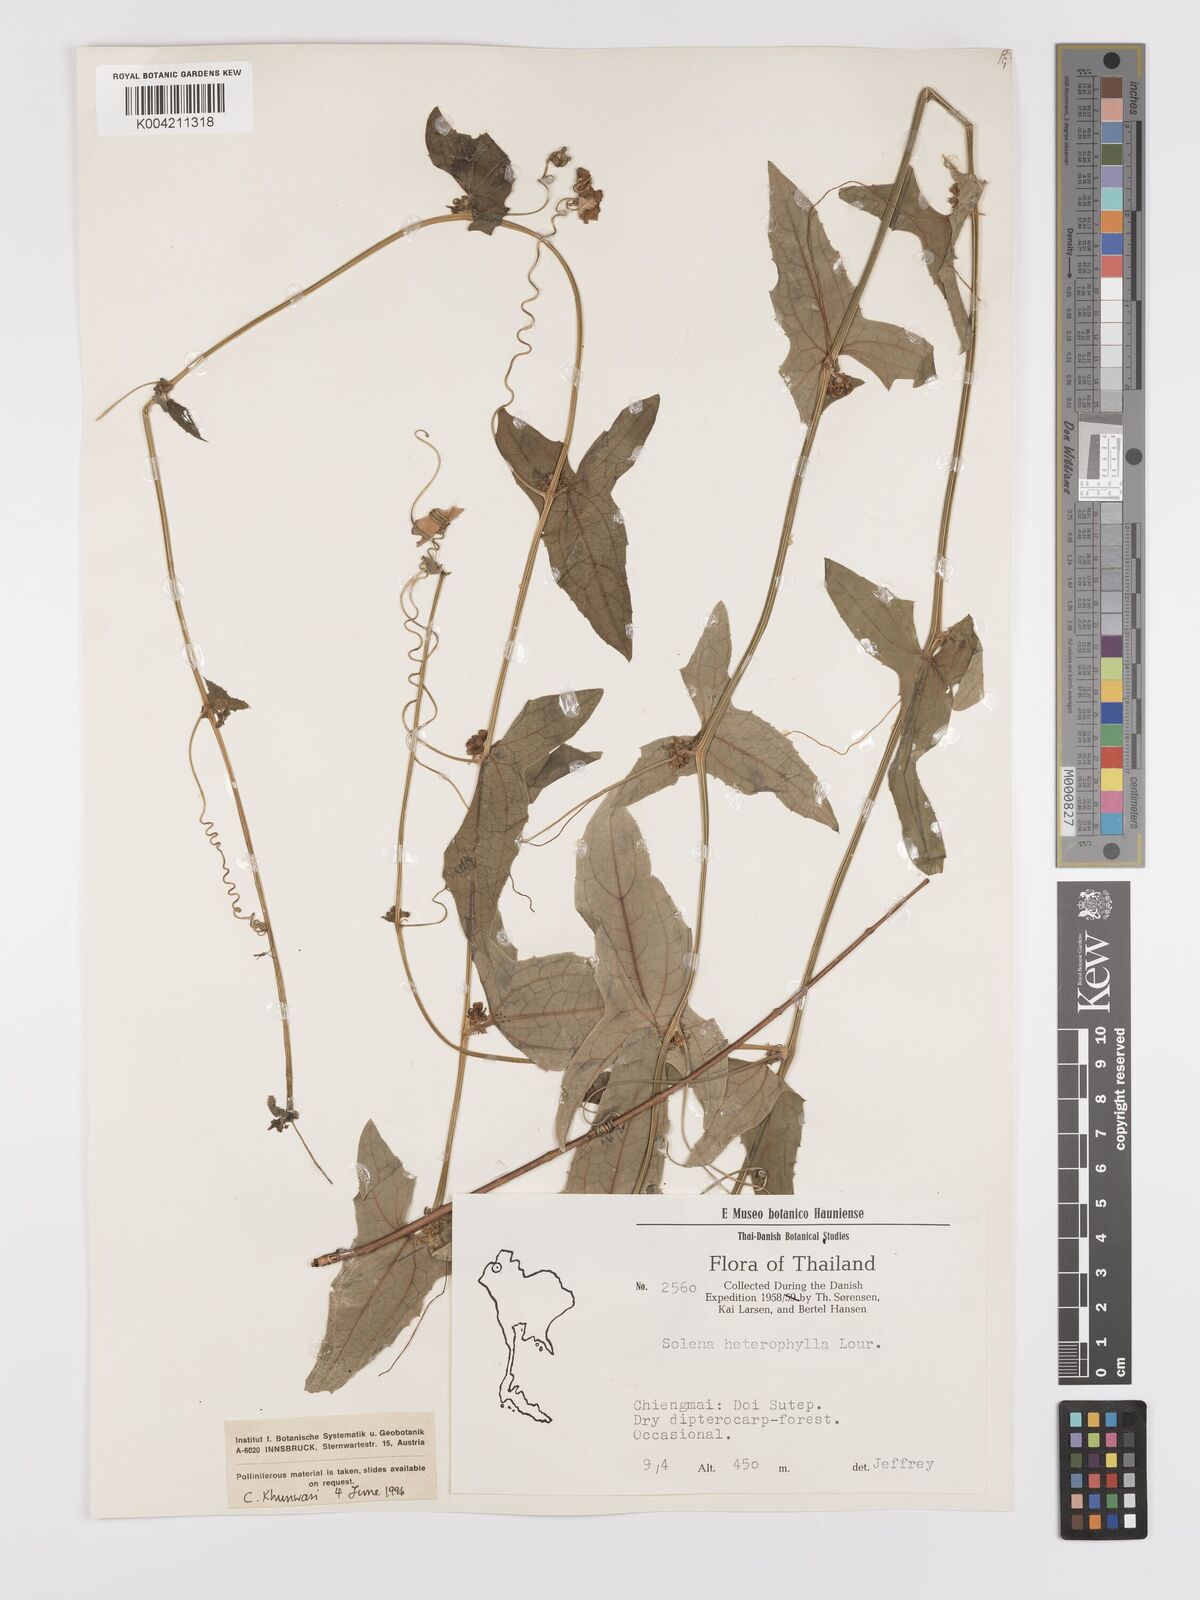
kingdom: Plantae
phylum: Tracheophyta
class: Magnoliopsida
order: Cucurbitales
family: Cucurbitaceae
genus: Solena
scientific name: Solena amplexicaulis
